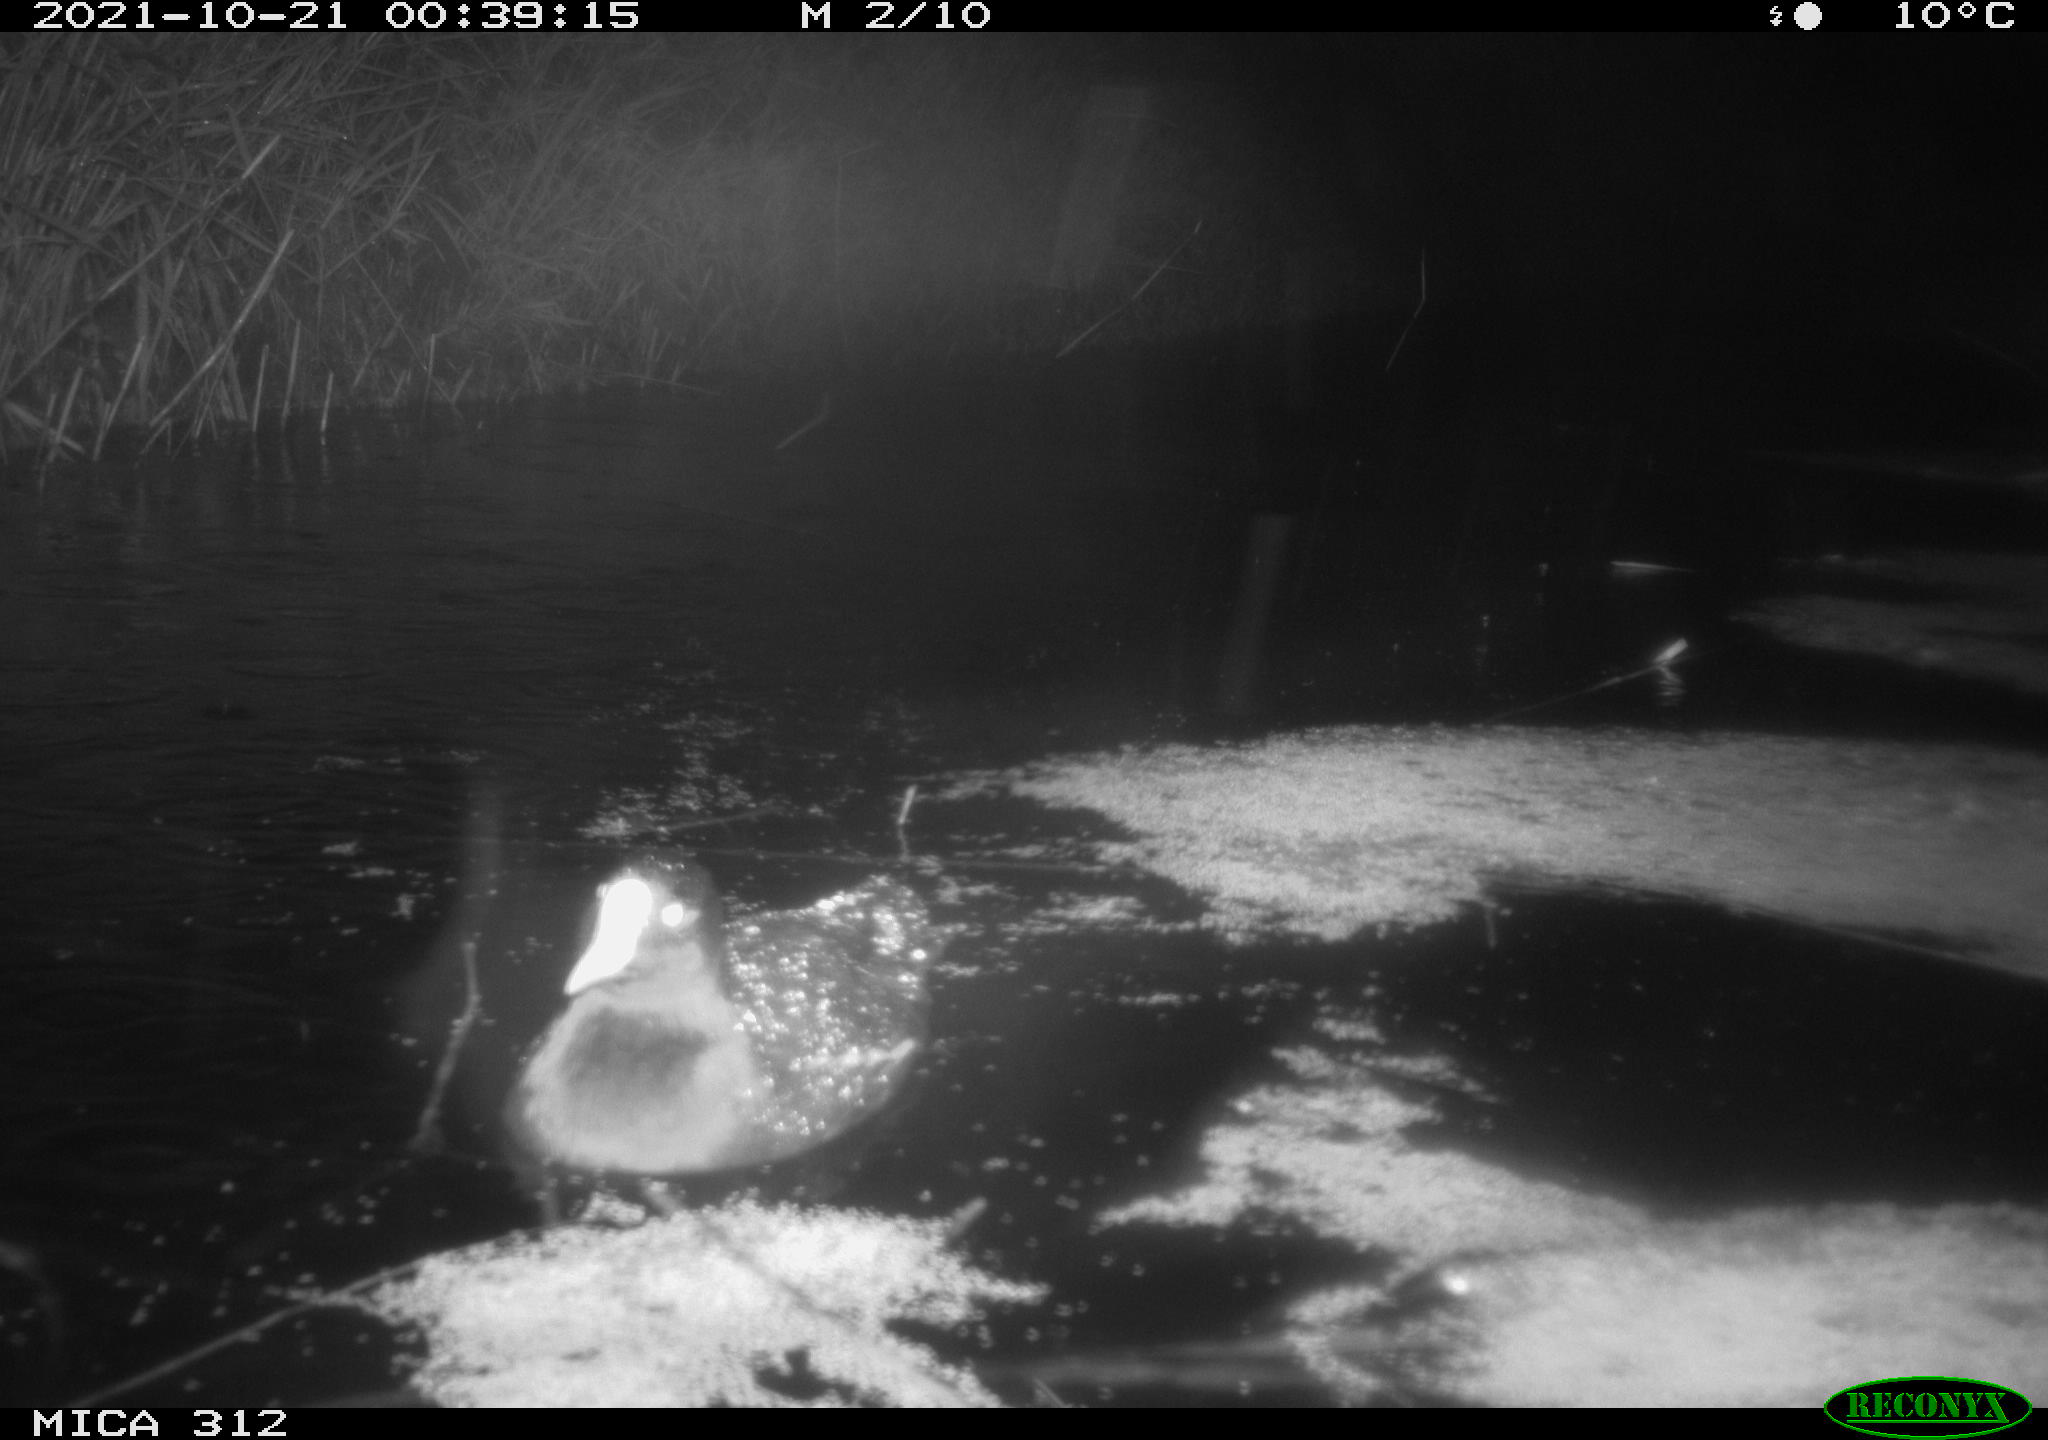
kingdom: Animalia
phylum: Chordata
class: Aves
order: Gruiformes
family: Rallidae
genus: Gallinula
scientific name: Gallinula chloropus
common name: Common moorhen
